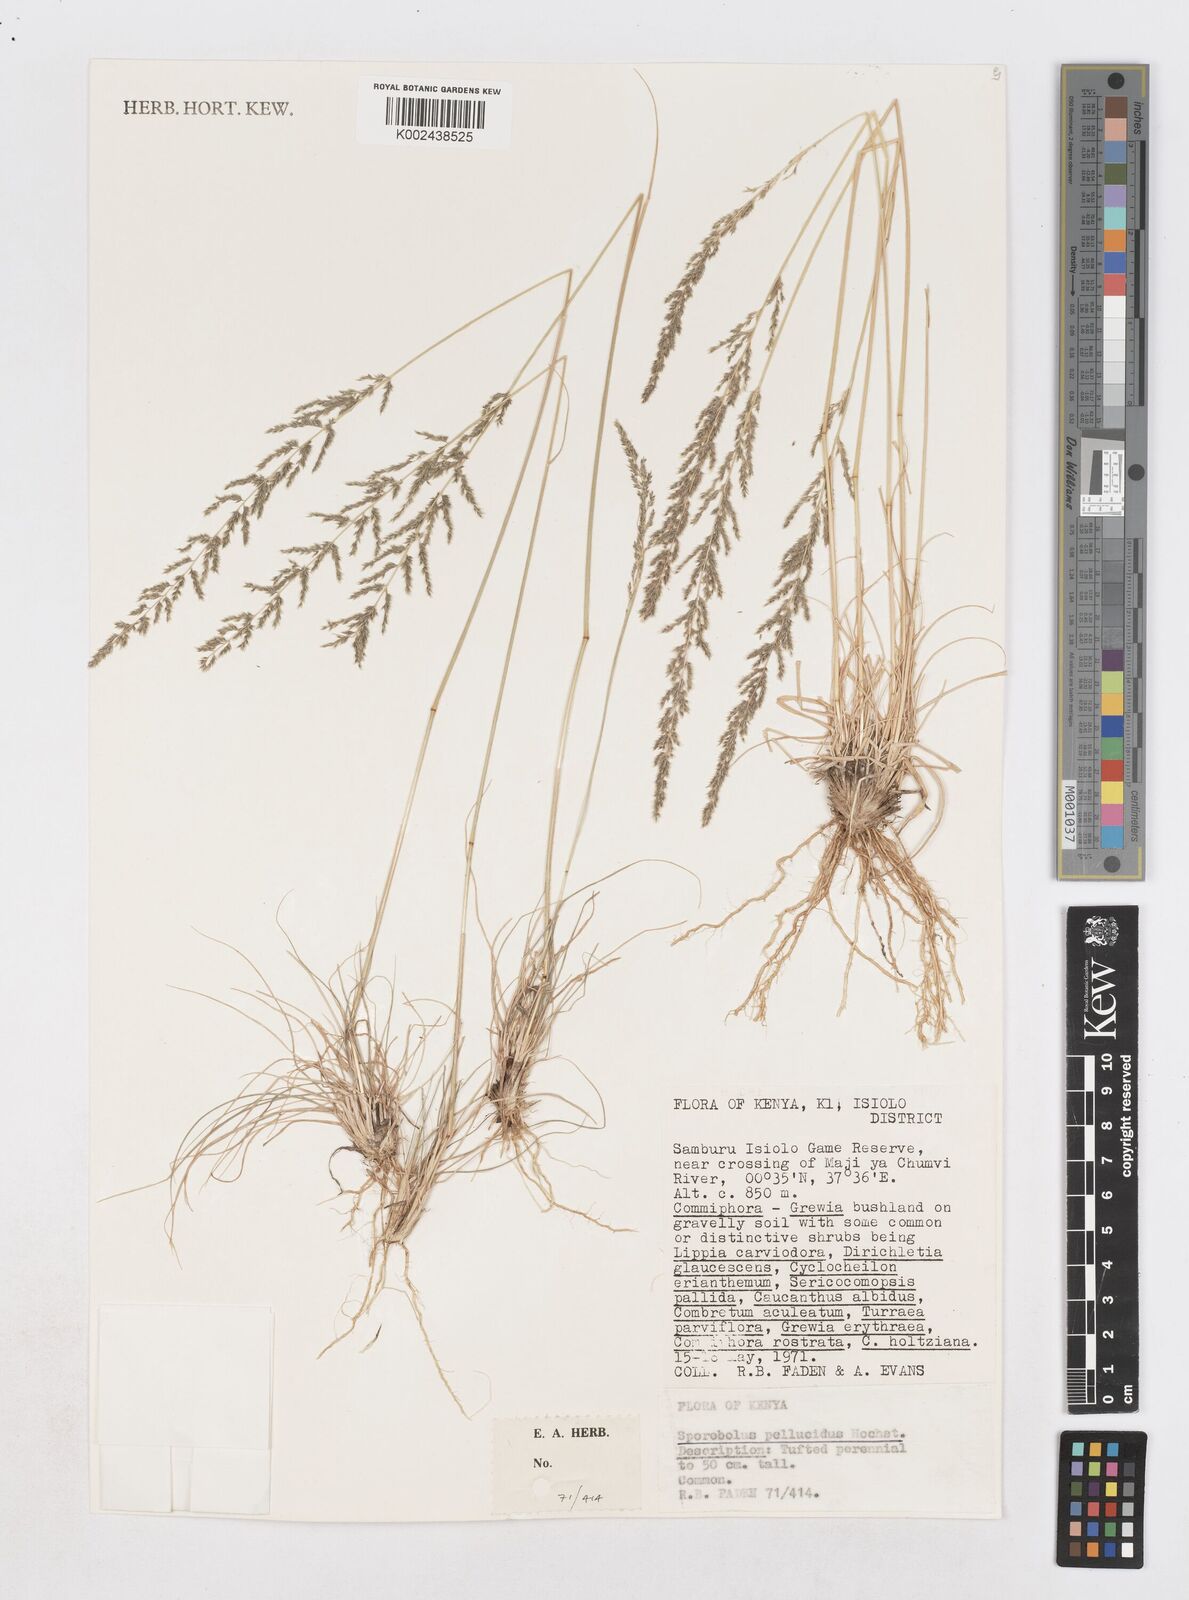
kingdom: Plantae
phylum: Tracheophyta
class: Liliopsida
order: Poales
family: Poaceae
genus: Sporobolus
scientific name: Sporobolus pellucidus
